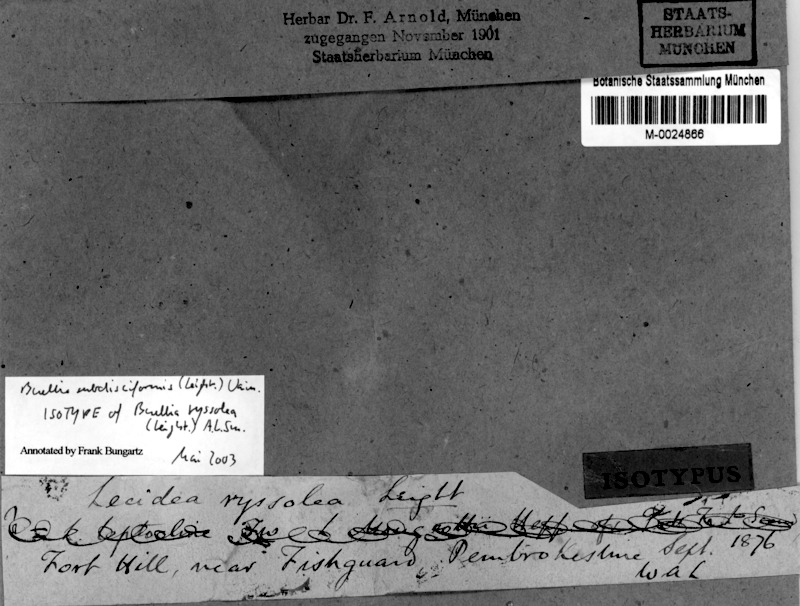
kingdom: Fungi
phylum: Ascomycota
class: Lecanoromycetes
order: Caliciales
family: Caliciaceae
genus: Buellia
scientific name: Buellia subdisciformis
